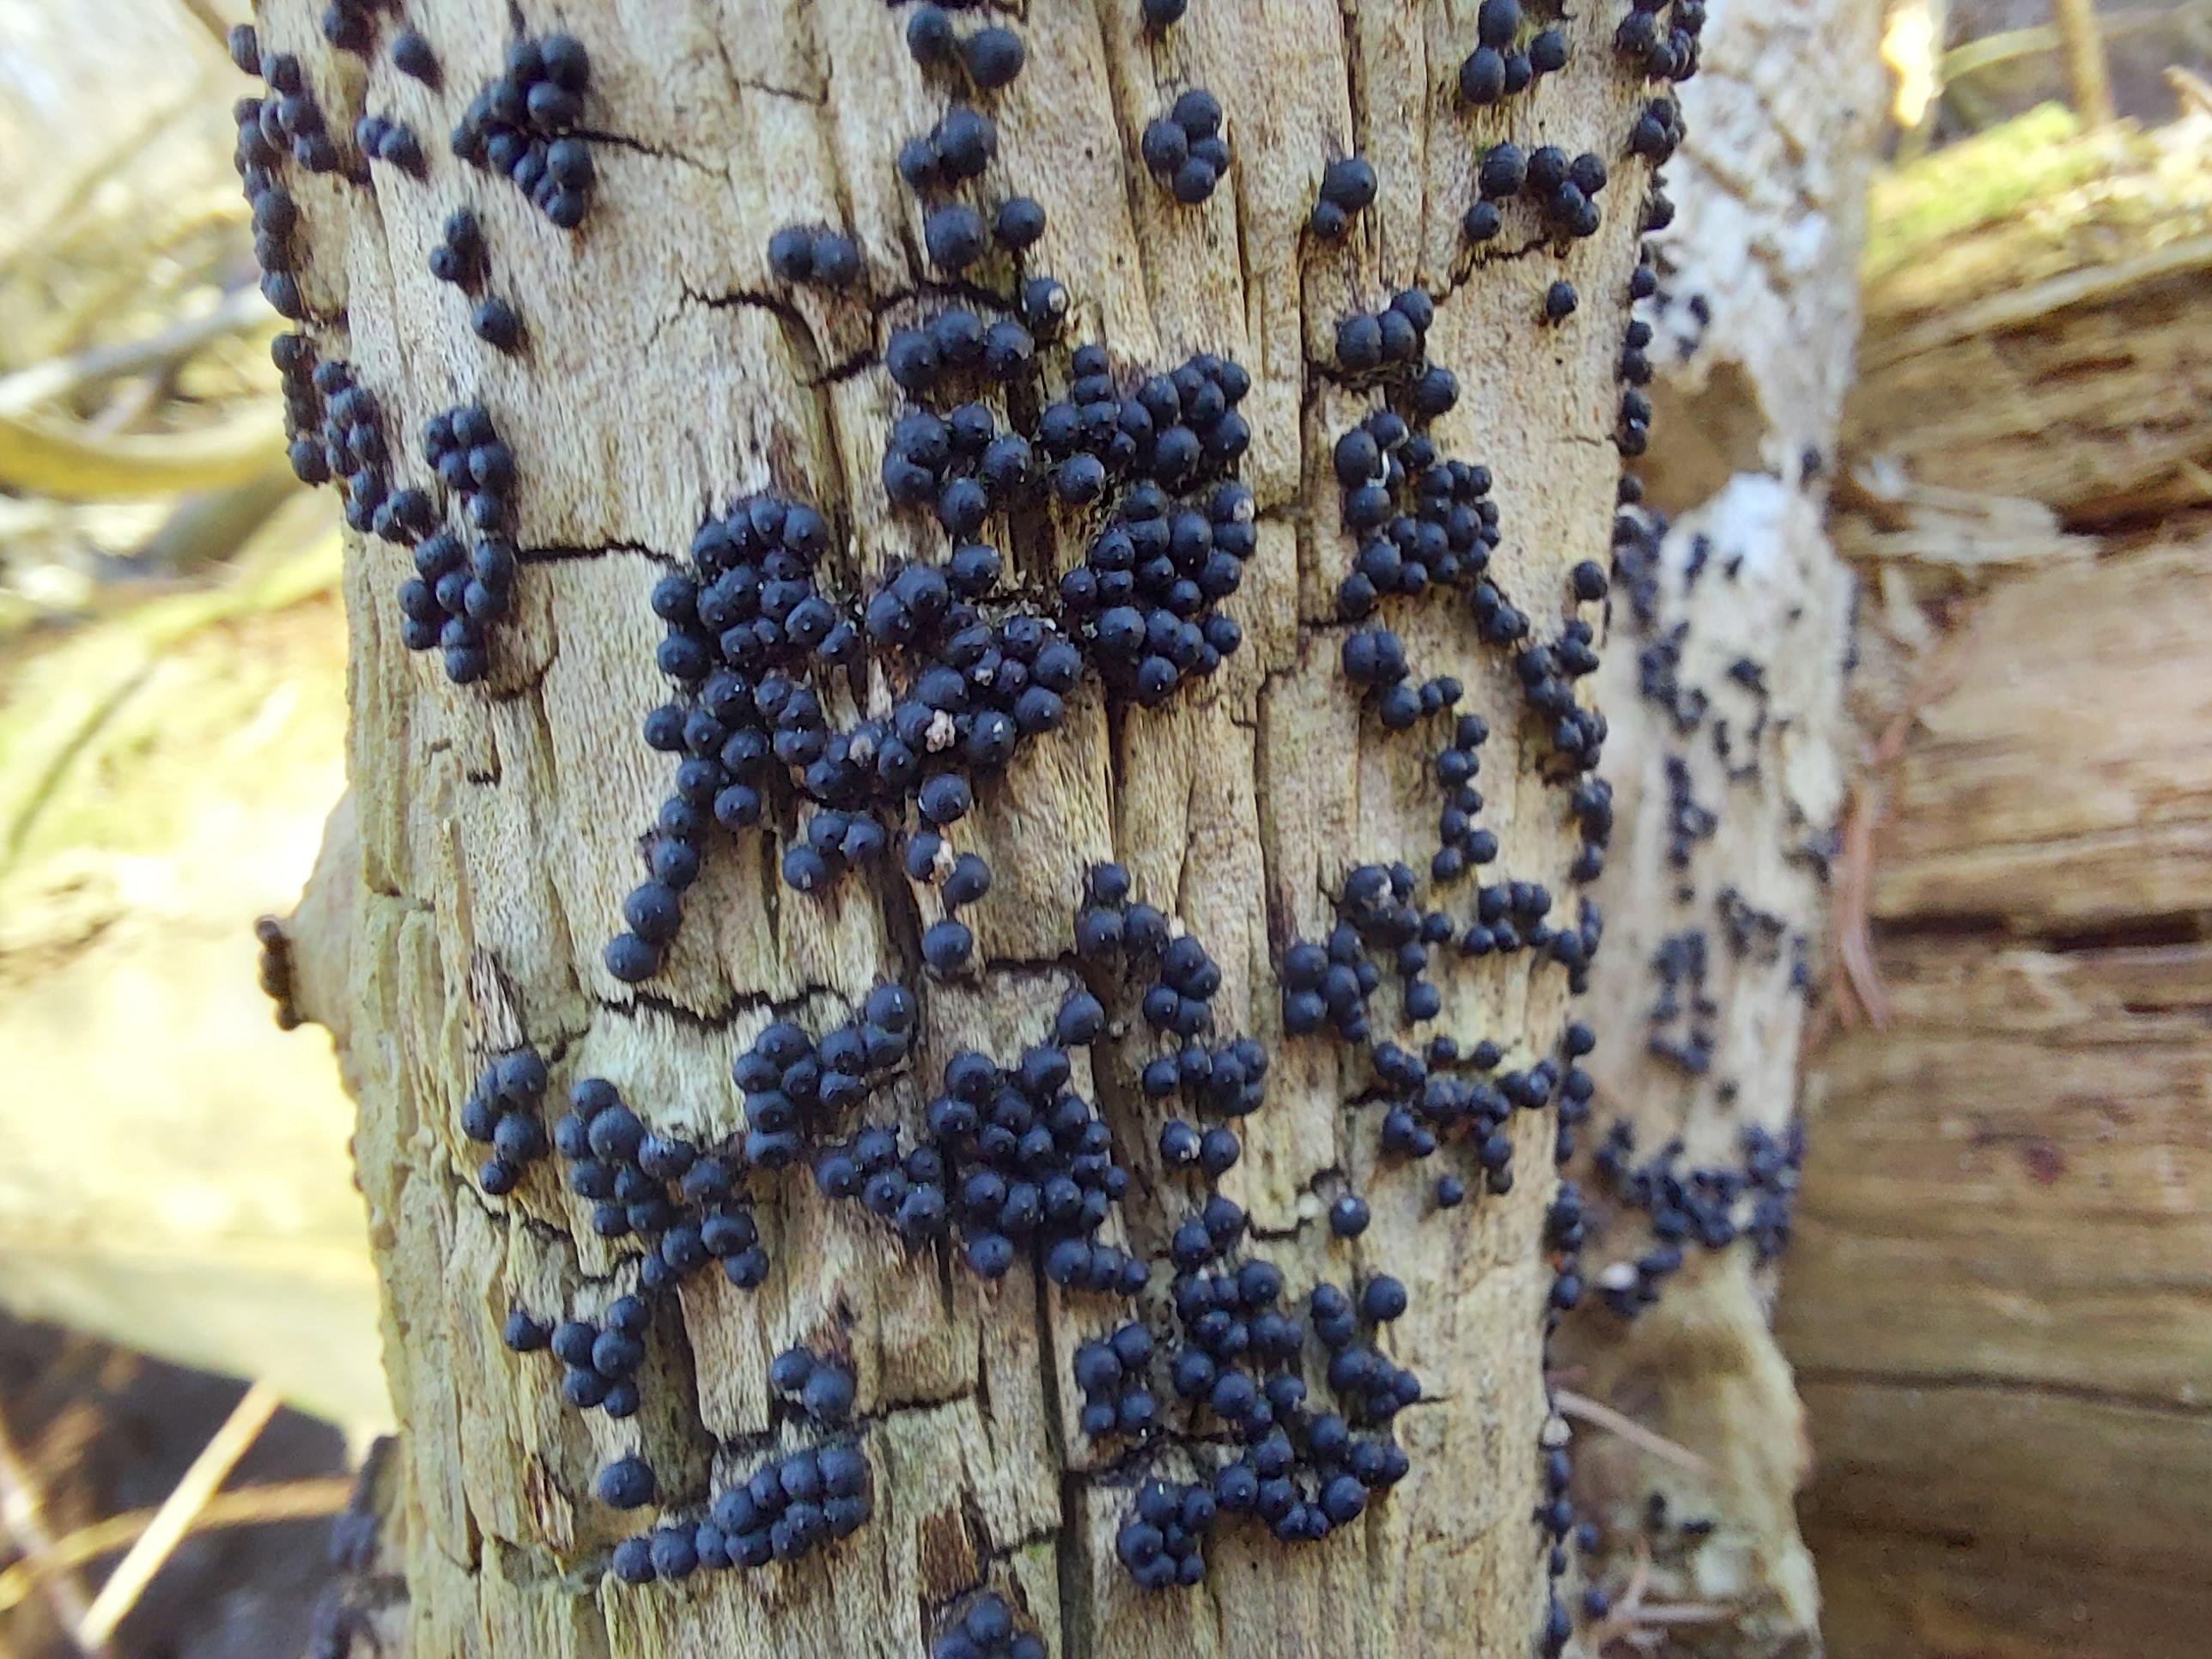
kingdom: Fungi
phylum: Ascomycota
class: Sordariomycetes
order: Xylariales
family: Xylariaceae
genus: Rosellinia
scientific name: Rosellinia
